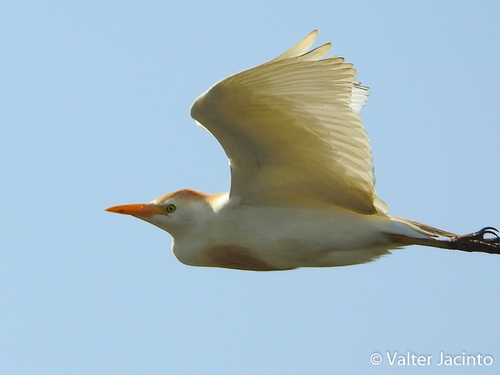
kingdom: Animalia
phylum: Chordata
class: Aves
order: Pelecaniformes
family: Ardeidae
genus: Bubulcus
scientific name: Bubulcus ibis
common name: Cattle egret
